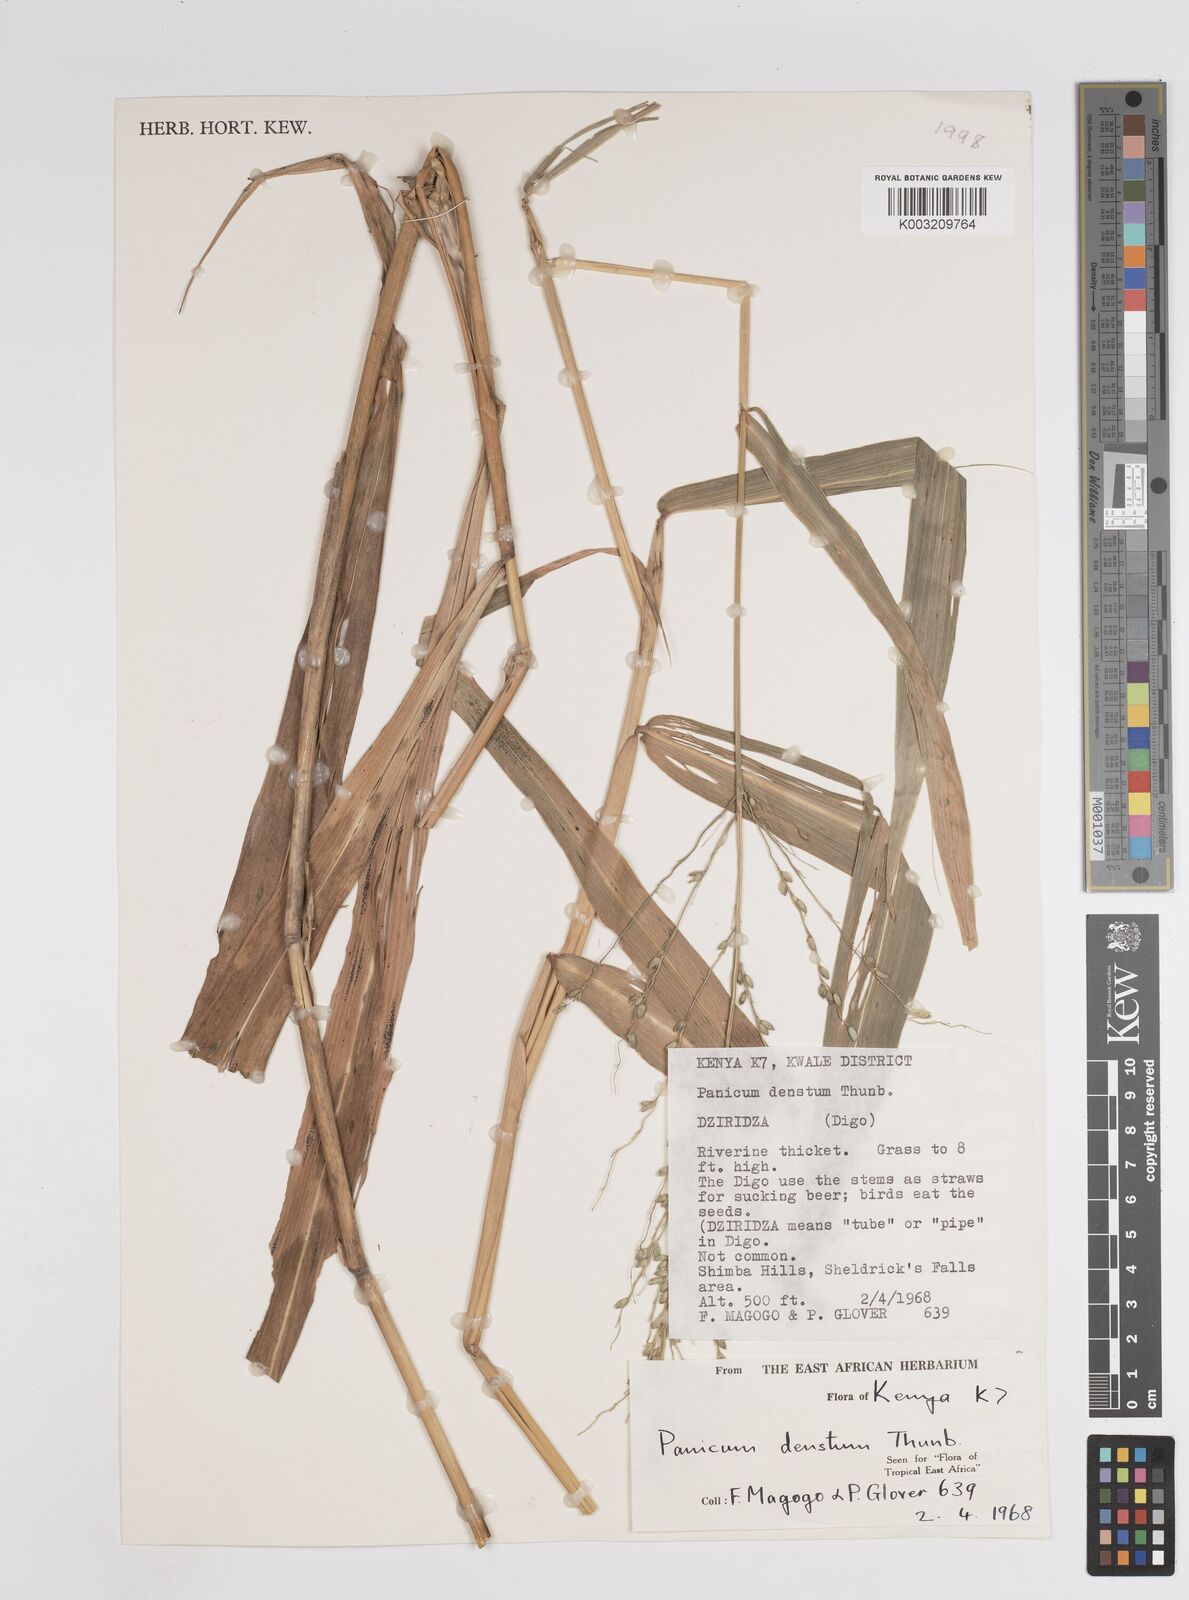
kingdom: Plantae
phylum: Tracheophyta
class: Liliopsida
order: Poales
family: Poaceae
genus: Panicum
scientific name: Panicum
